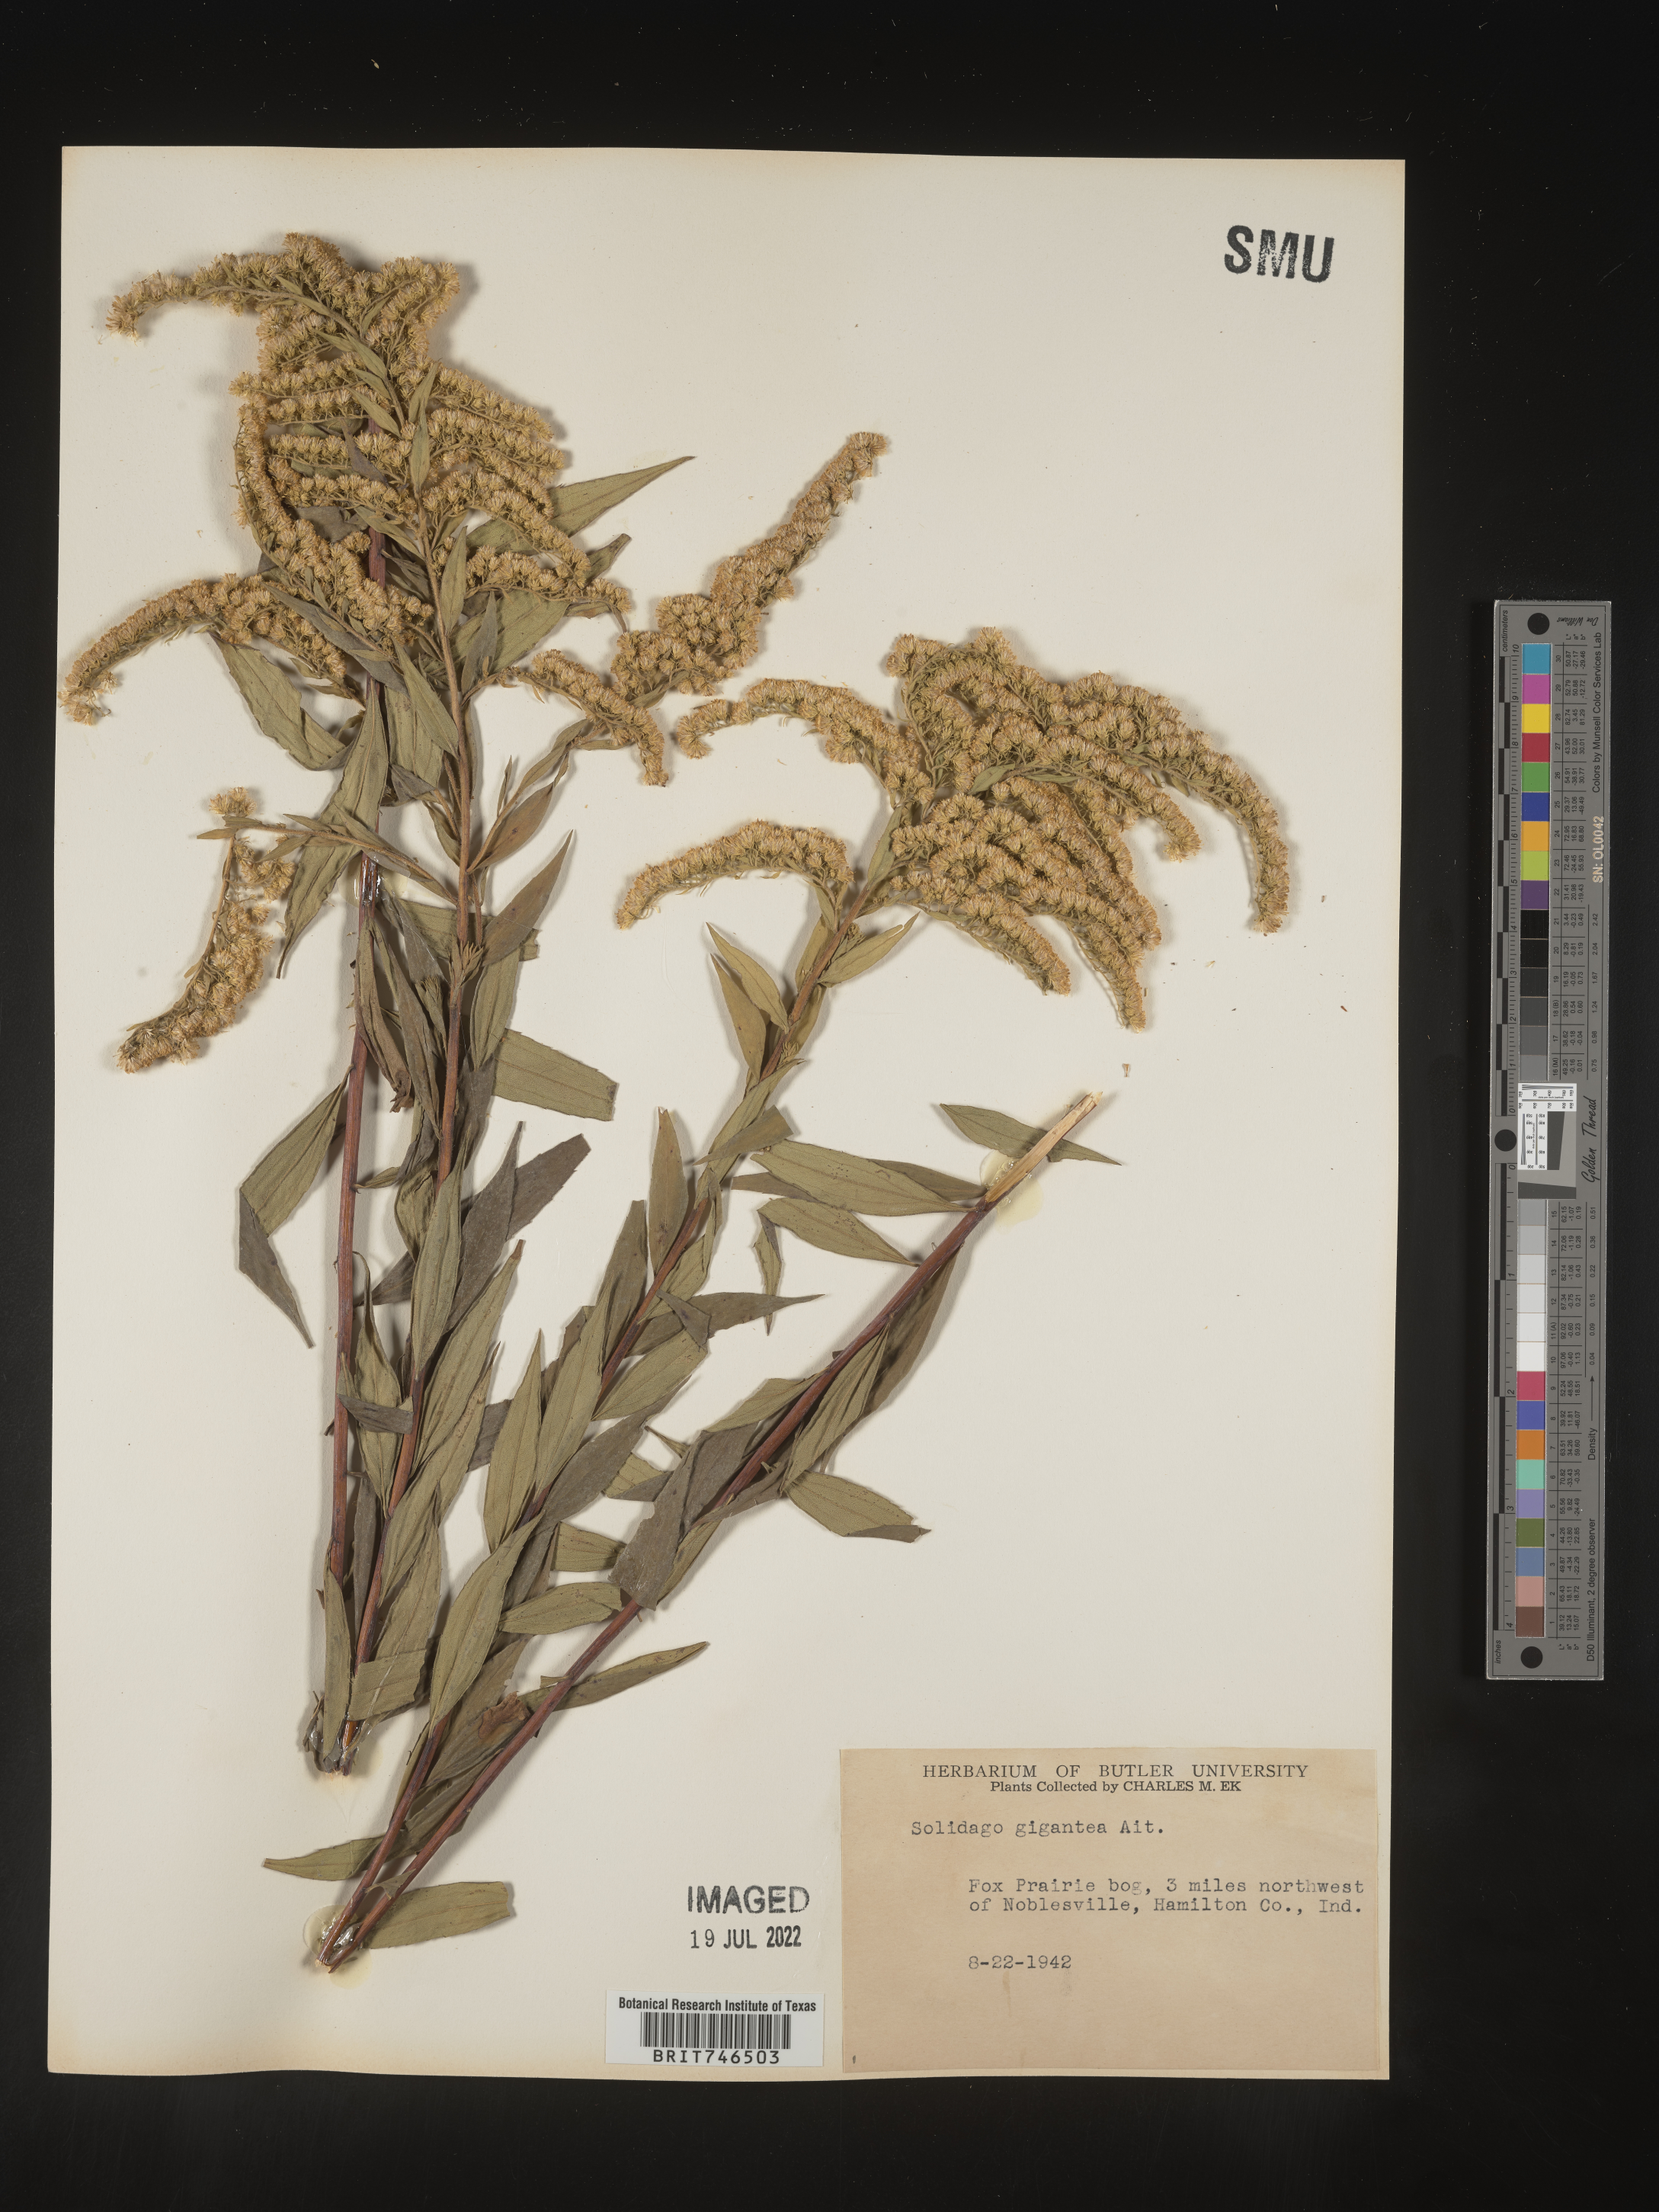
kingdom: Plantae
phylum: Tracheophyta
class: Magnoliopsida
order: Asterales
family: Asteraceae
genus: Solidago
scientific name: Solidago gigantea
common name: Giant goldenrod
